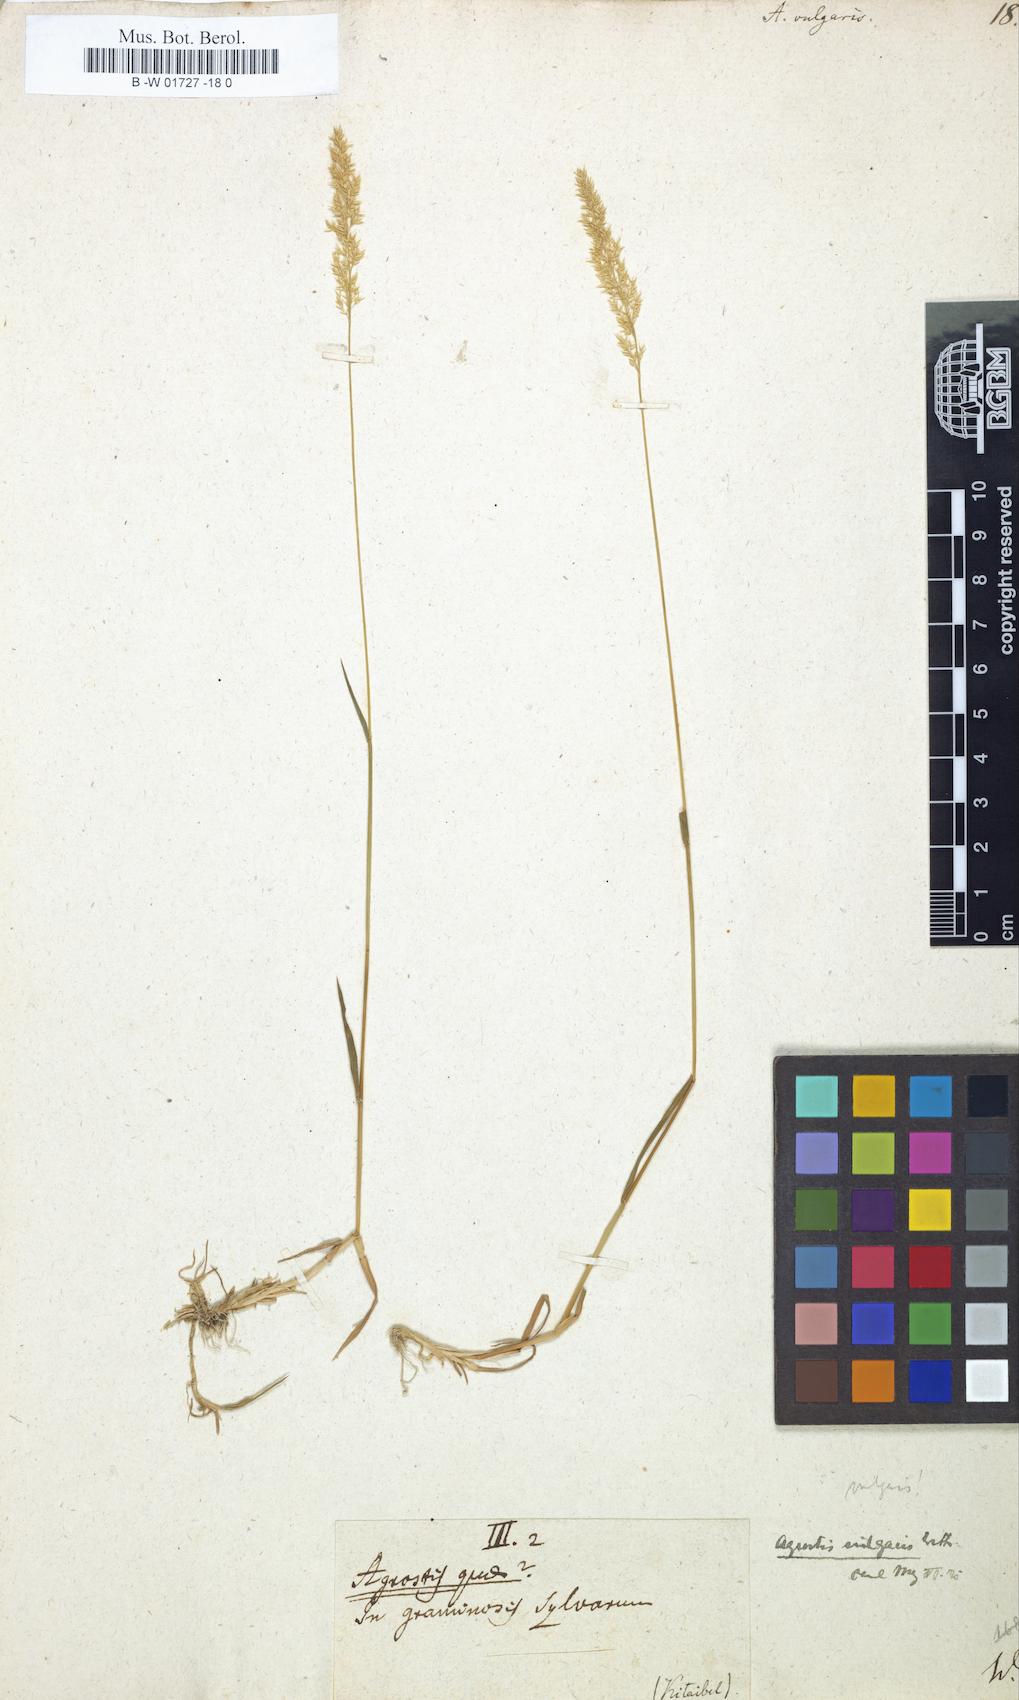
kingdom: Plantae
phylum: Tracheophyta
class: Liliopsida
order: Poales
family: Poaceae
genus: Agrostis
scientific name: Agrostis capillaris
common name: Colonial bentgrass
